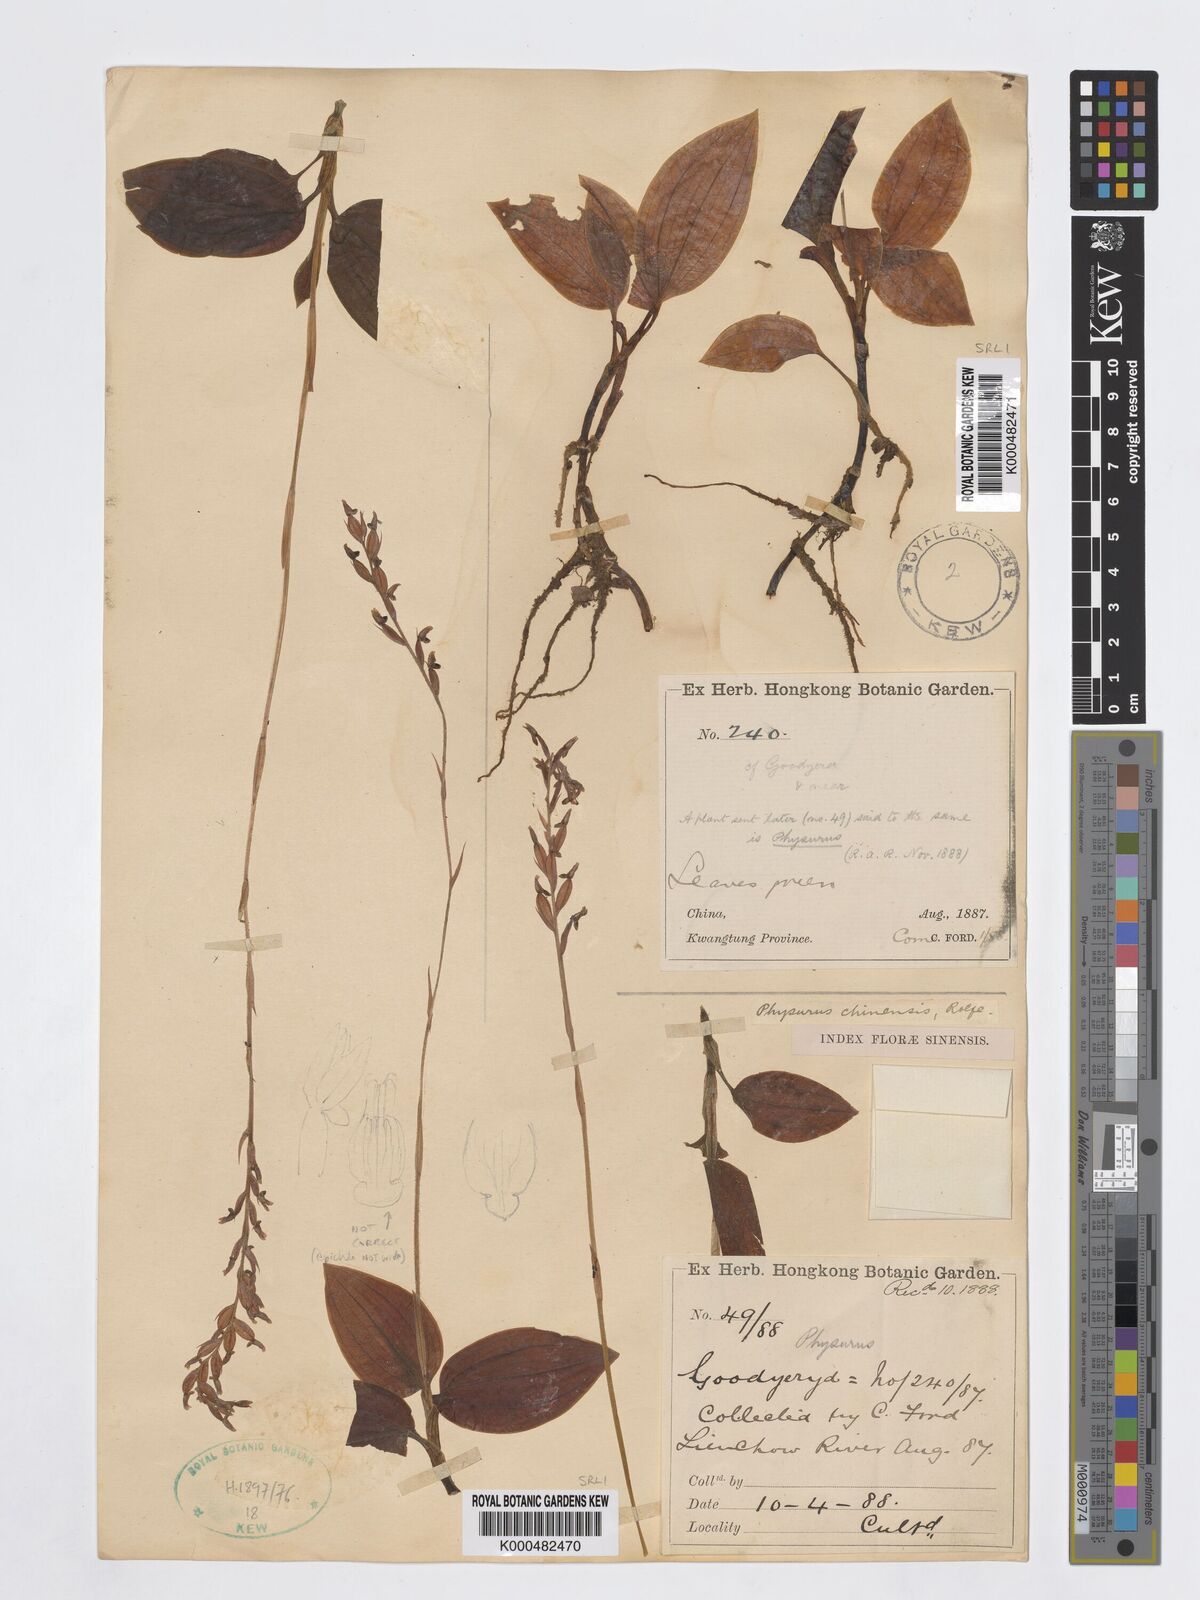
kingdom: Plantae
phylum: Tracheophyta
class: Liliopsida
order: Asparagales
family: Orchidaceae
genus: Erythrodes
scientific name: Erythrodes chinensis
